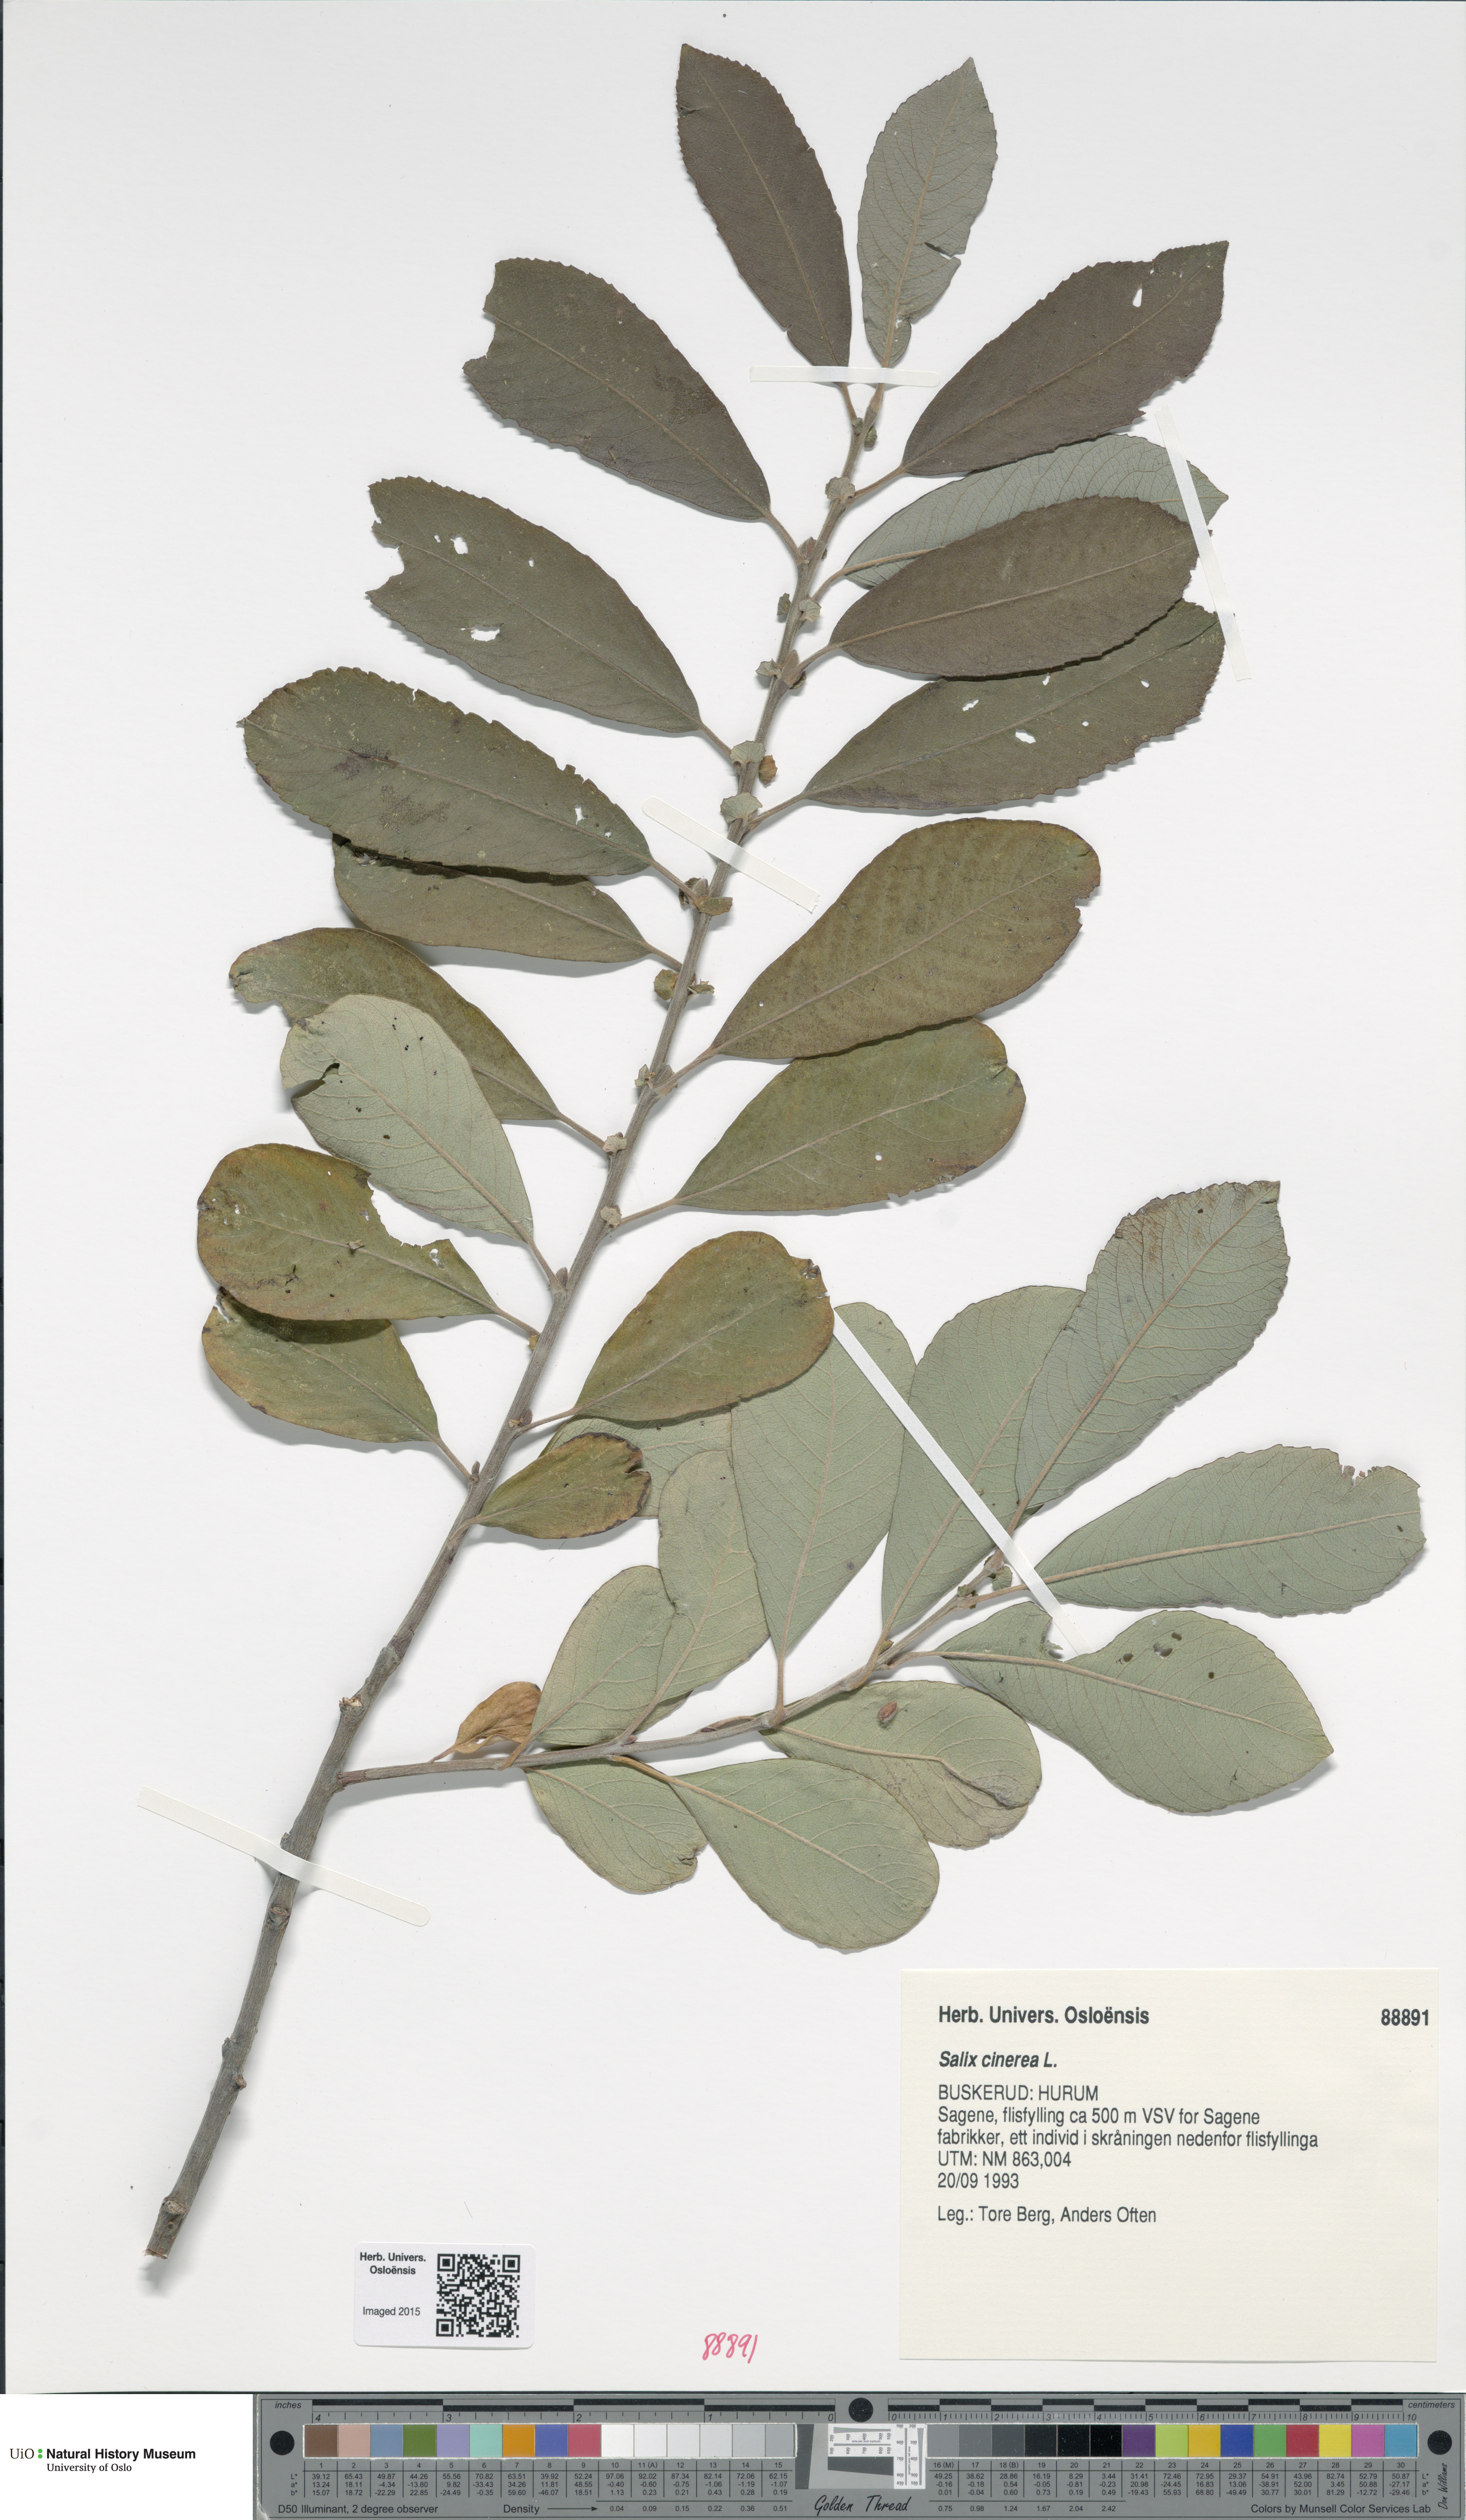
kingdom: Plantae
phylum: Tracheophyta
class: Magnoliopsida
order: Malpighiales
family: Salicaceae
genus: Salix
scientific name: Salix cinerea
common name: Common sallow
